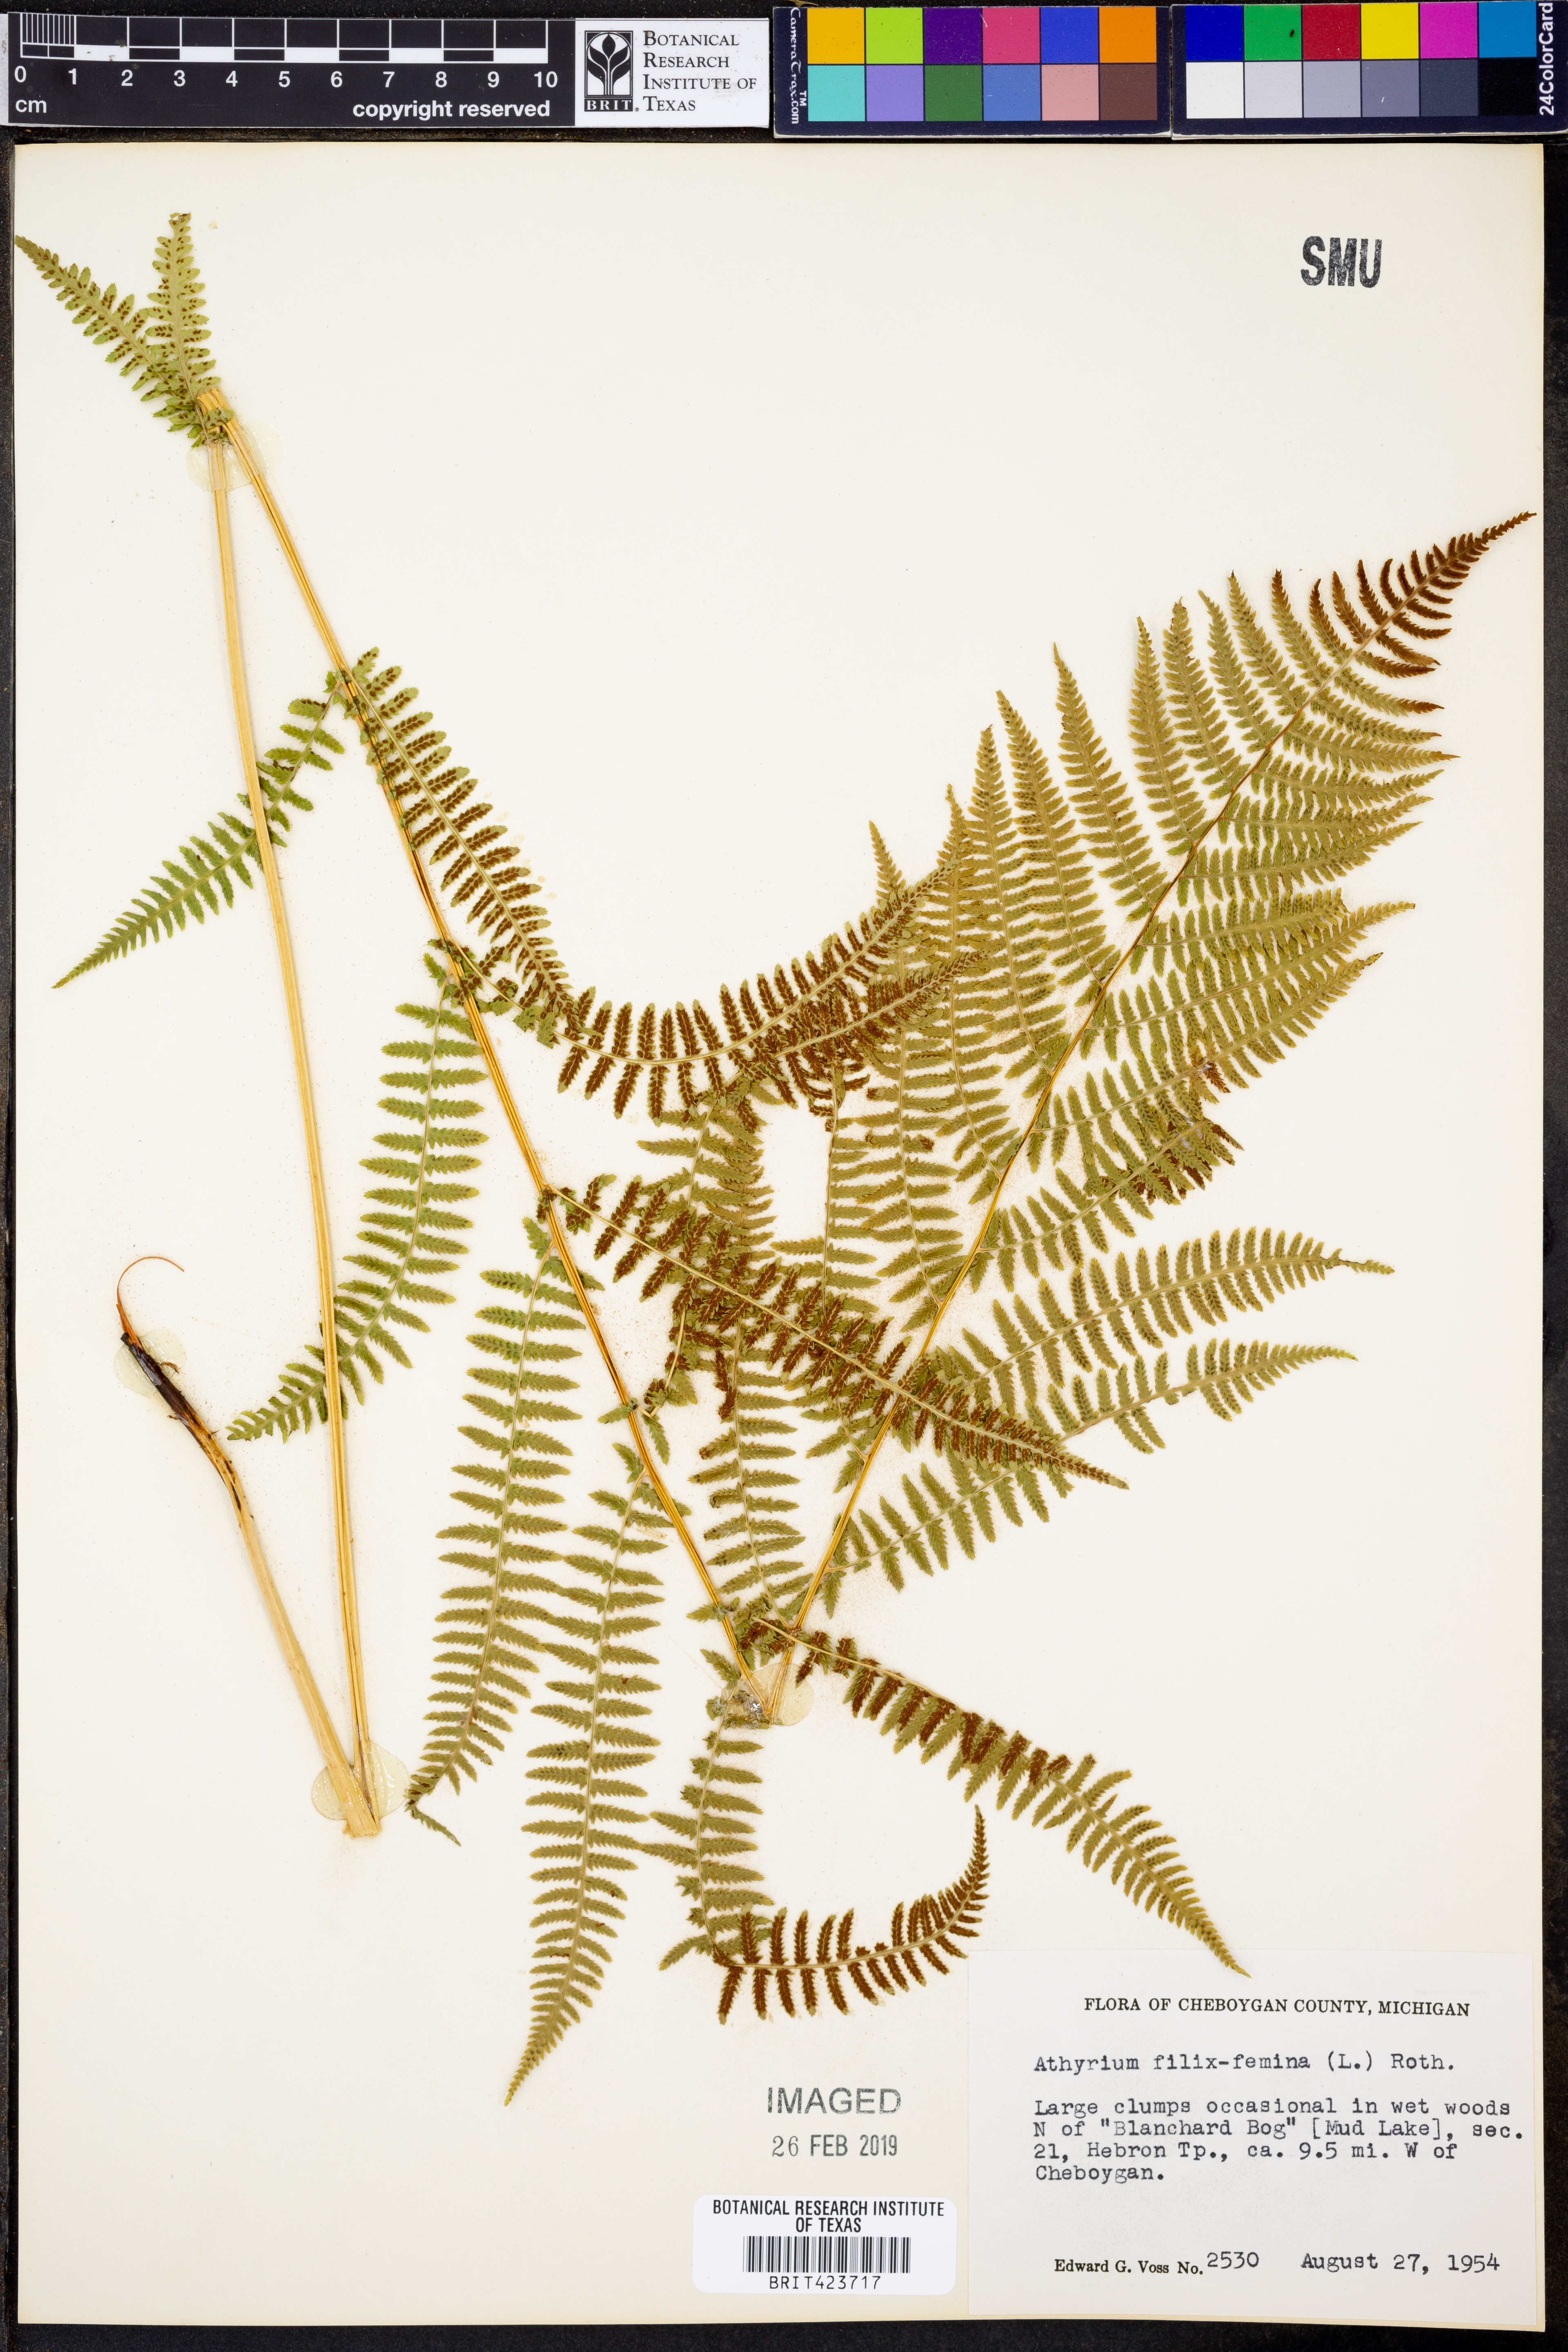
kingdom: Plantae
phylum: Tracheophyta
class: Polypodiopsida
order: Polypodiales
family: Athyriaceae
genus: Athyrium
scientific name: Athyrium filix-femina
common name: Lady fern
